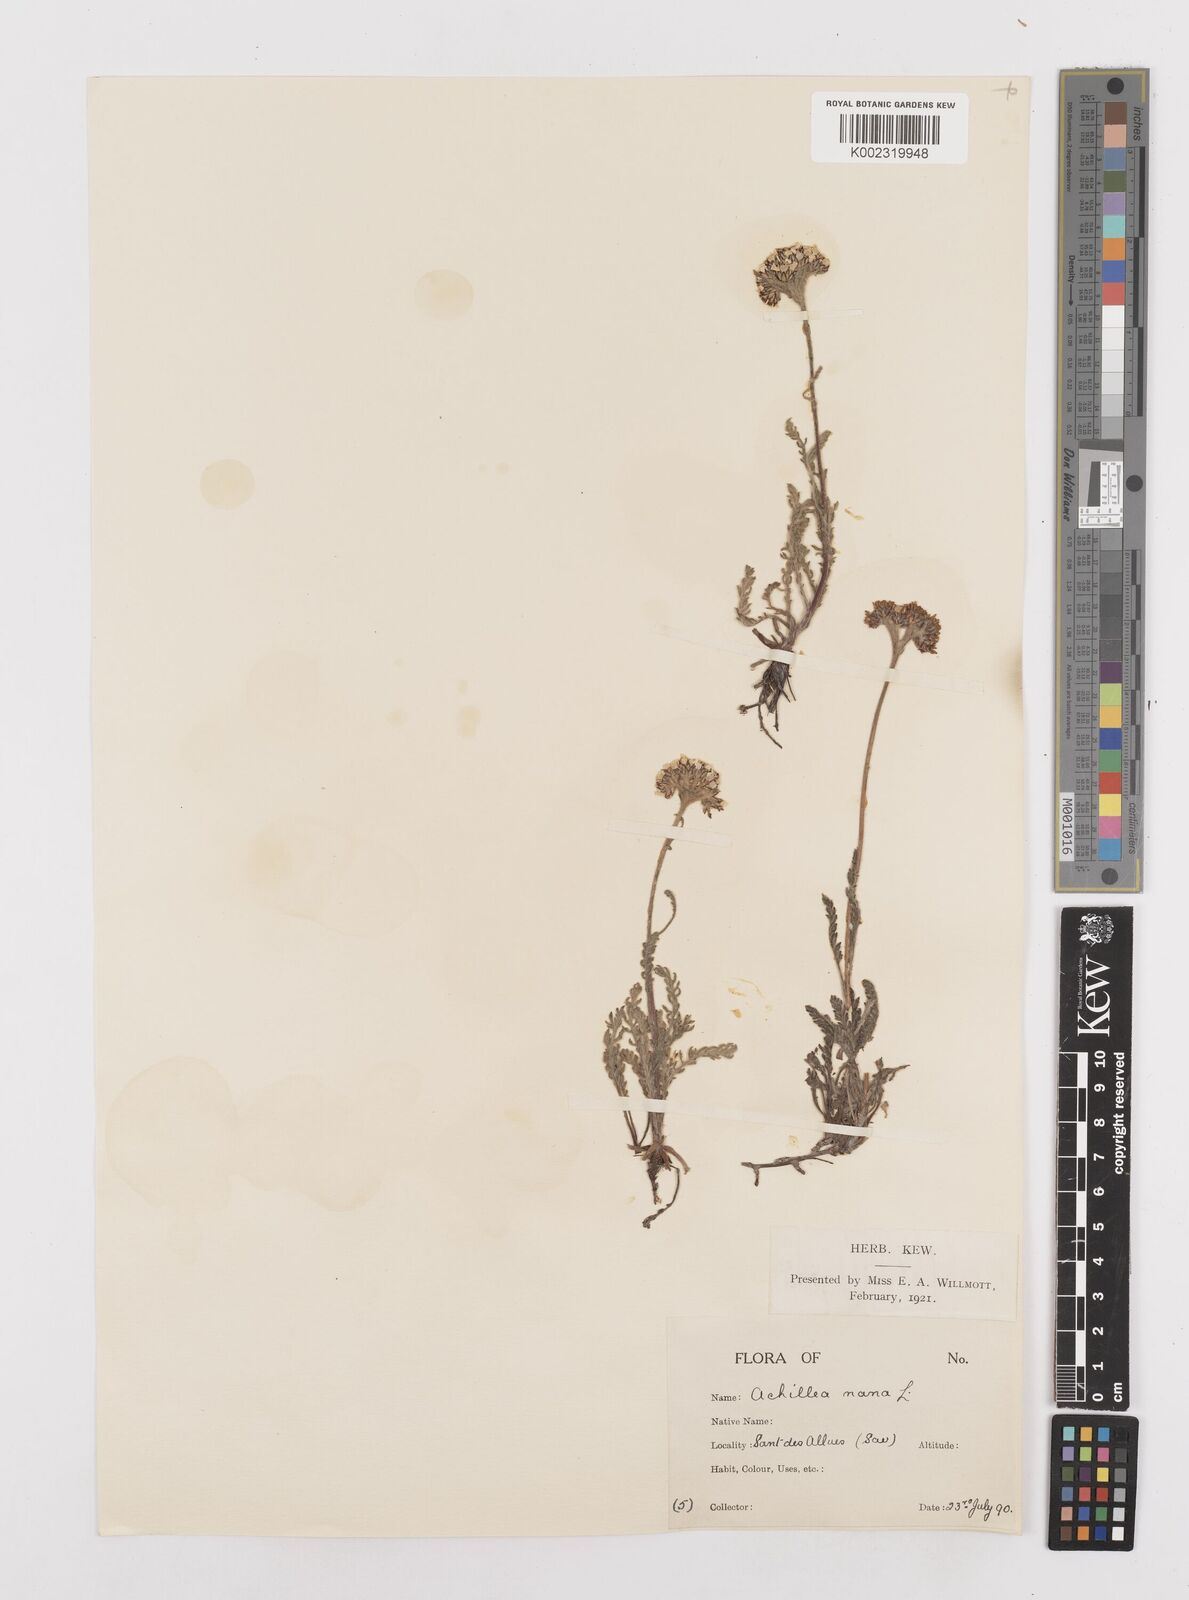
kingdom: Plantae
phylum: Tracheophyta
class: Magnoliopsida
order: Asterales
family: Asteraceae
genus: Achillea
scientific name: Achillea
